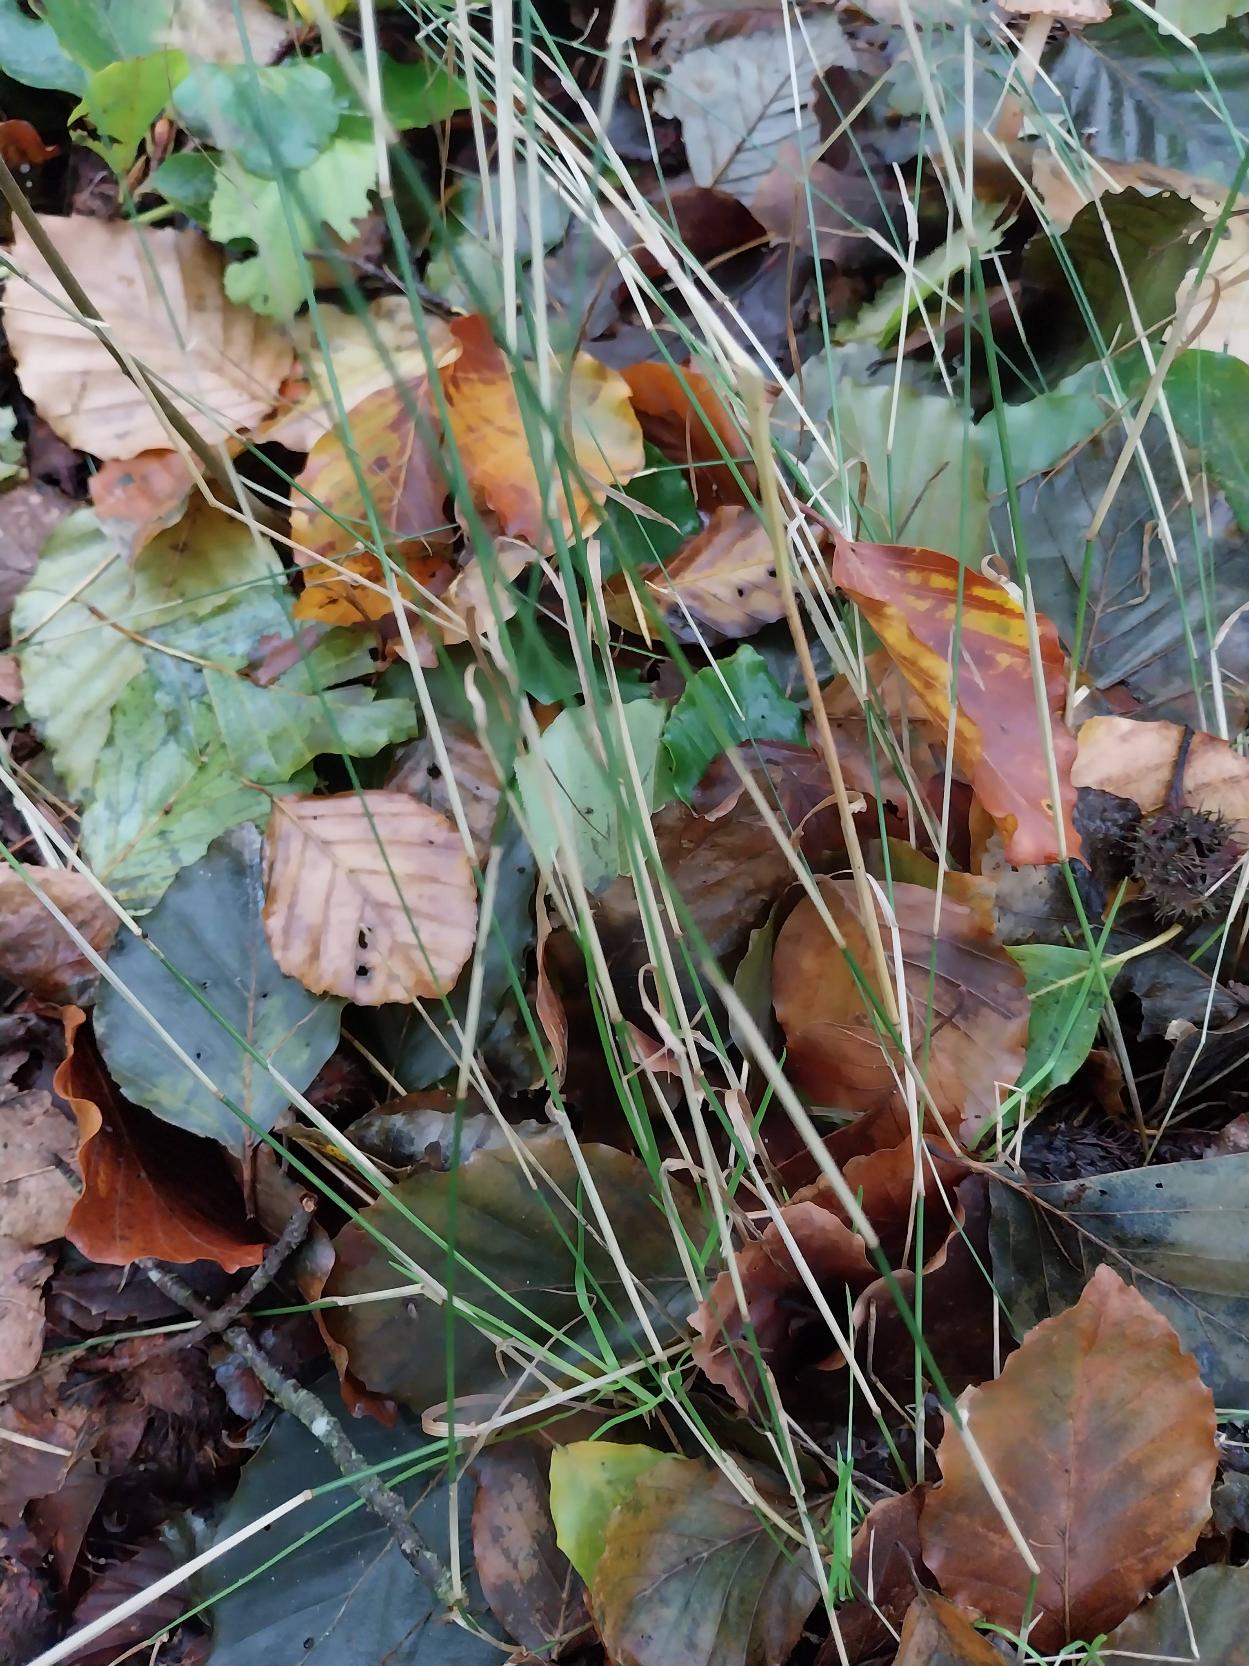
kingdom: Plantae
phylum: Tracheophyta
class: Liliopsida
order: Poales
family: Poaceae
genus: Poa
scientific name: Poa nemoralis
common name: Lund-rapgræs
